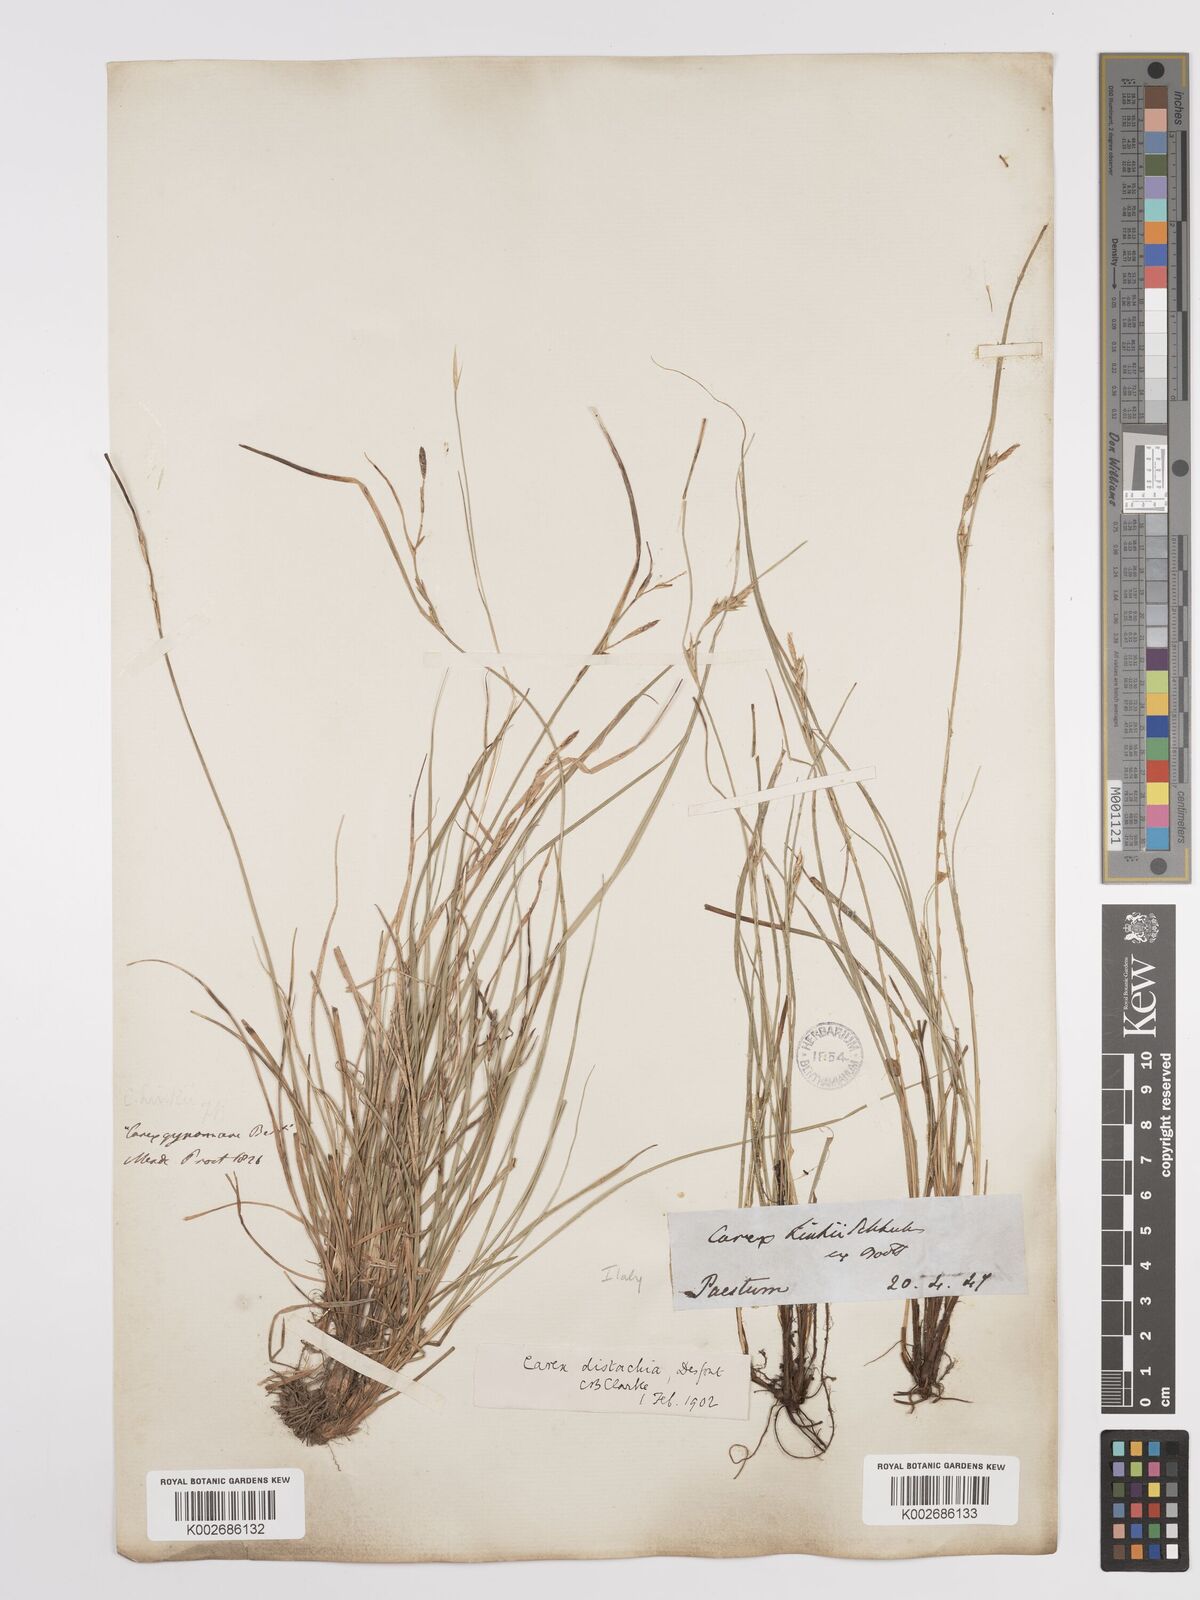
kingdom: Plantae
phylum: Tracheophyta
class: Liliopsida
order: Poales
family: Cyperaceae
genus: Carex
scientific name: Carex distachya
